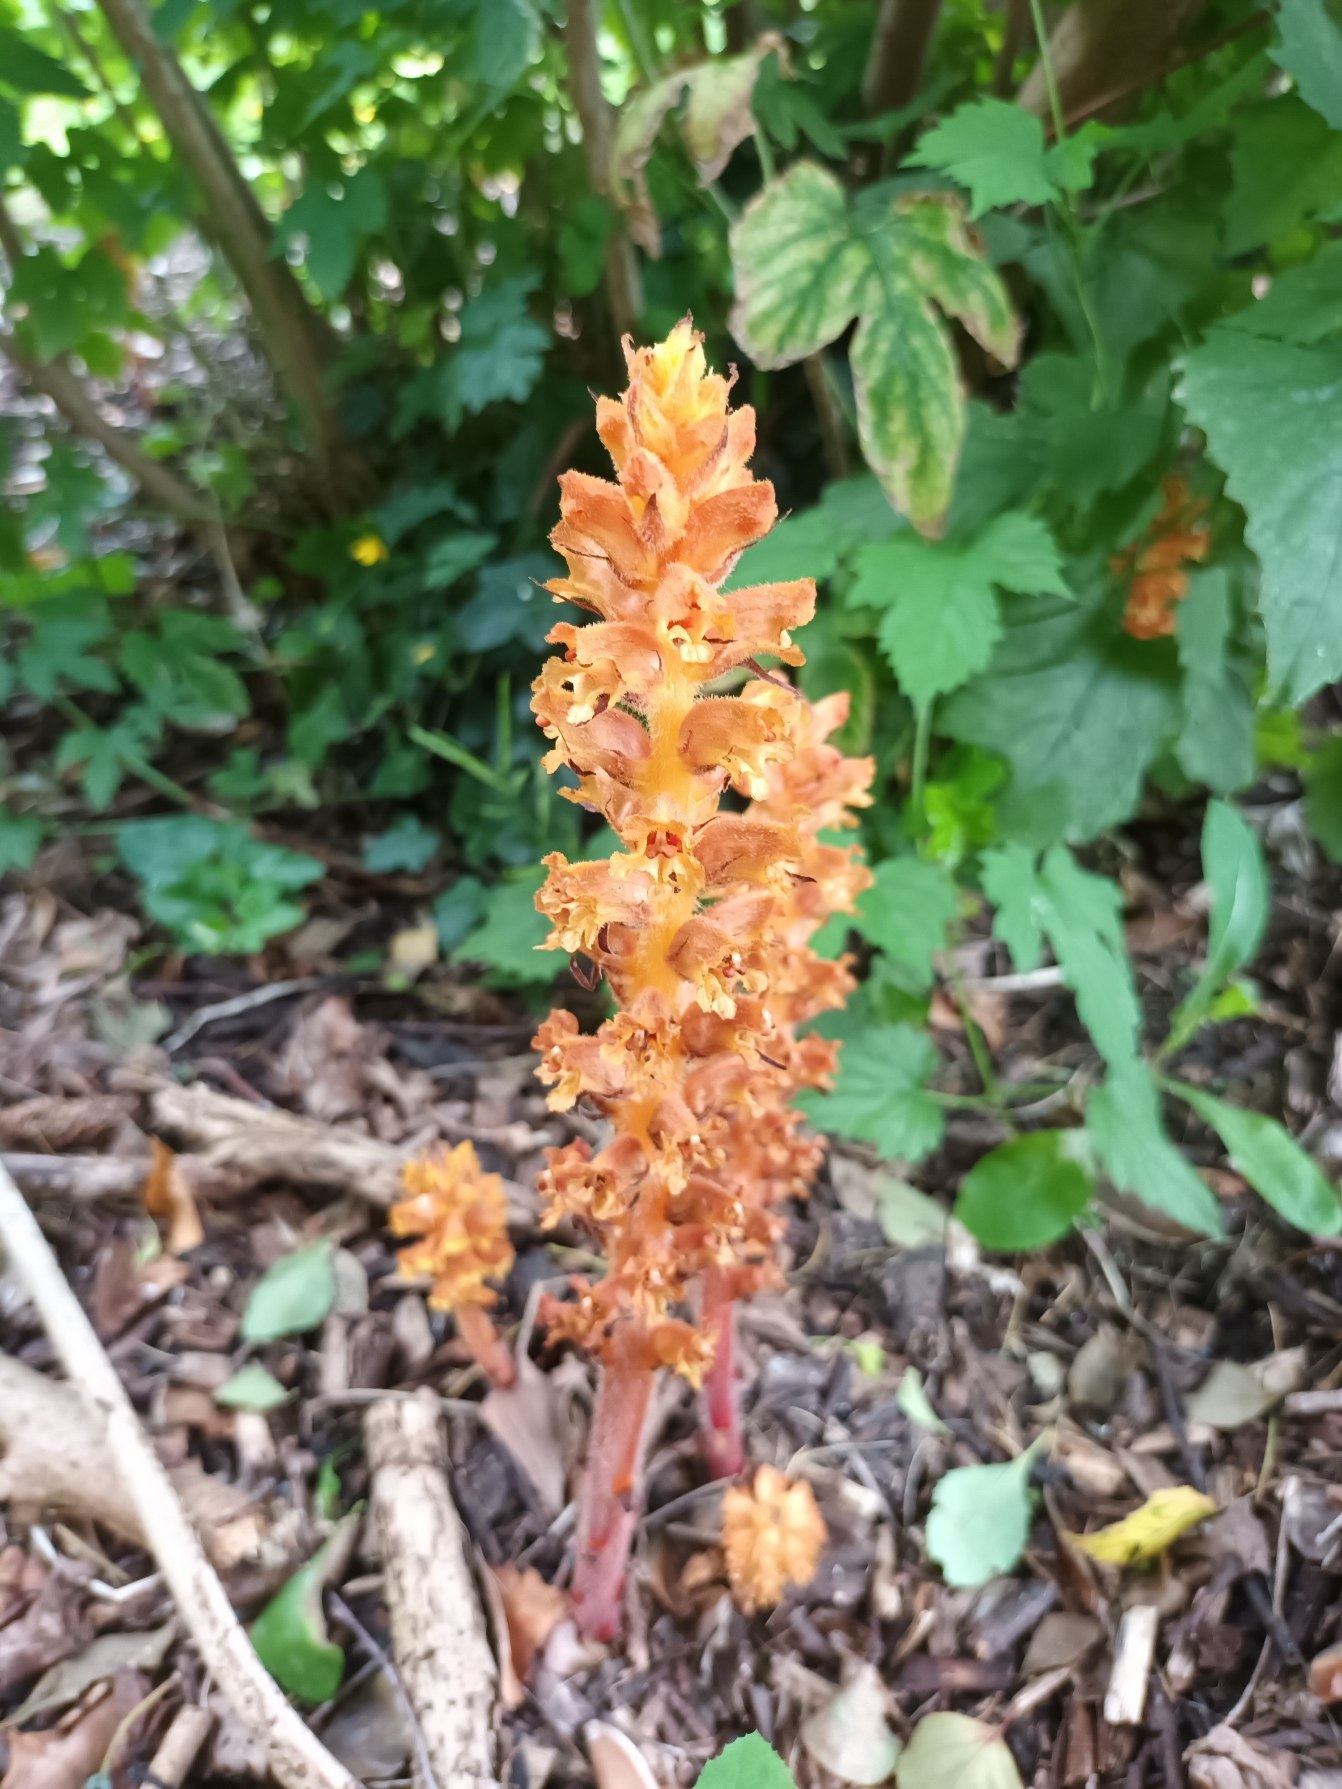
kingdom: Plantae
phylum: Tracheophyta
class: Magnoliopsida
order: Lamiales
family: Orobanchaceae
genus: Orobanche
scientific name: Orobanche lucorum
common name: Berberis-gyvelkvæler
